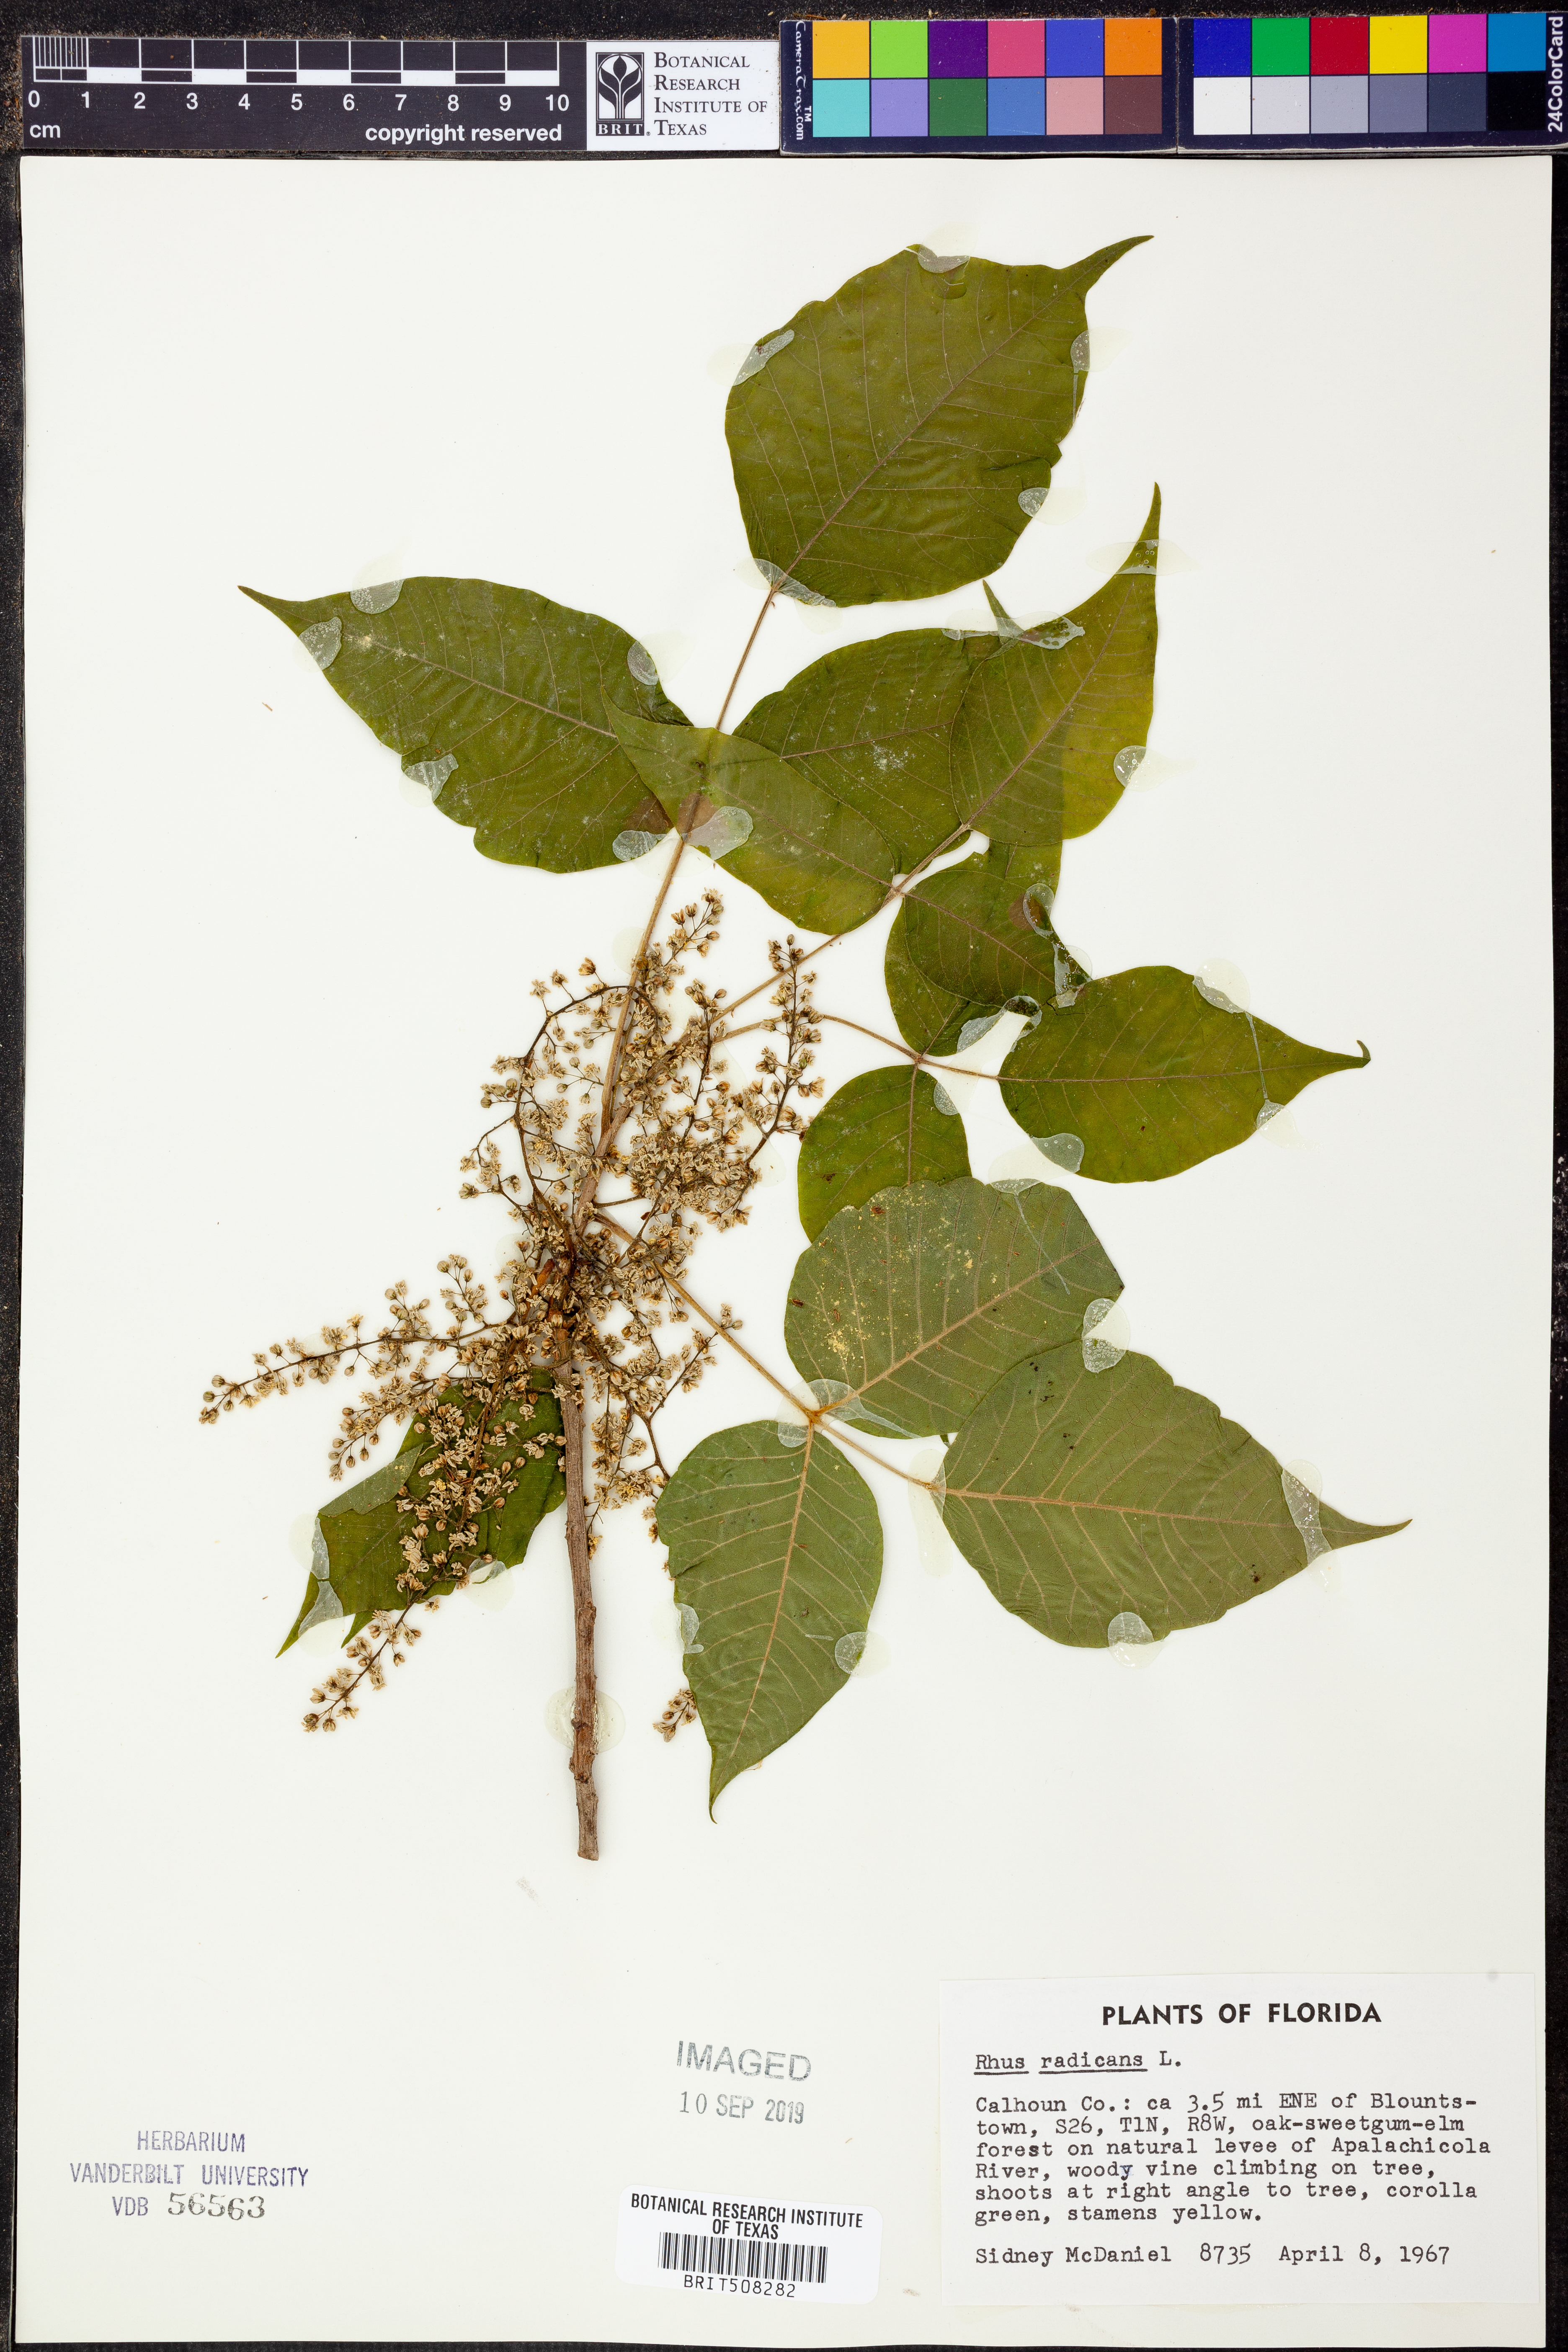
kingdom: Plantae
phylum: Tracheophyta
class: Magnoliopsida
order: Sapindales
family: Anacardiaceae
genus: Toxicodendron
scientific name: Toxicodendron radicans
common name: Poison ivy
